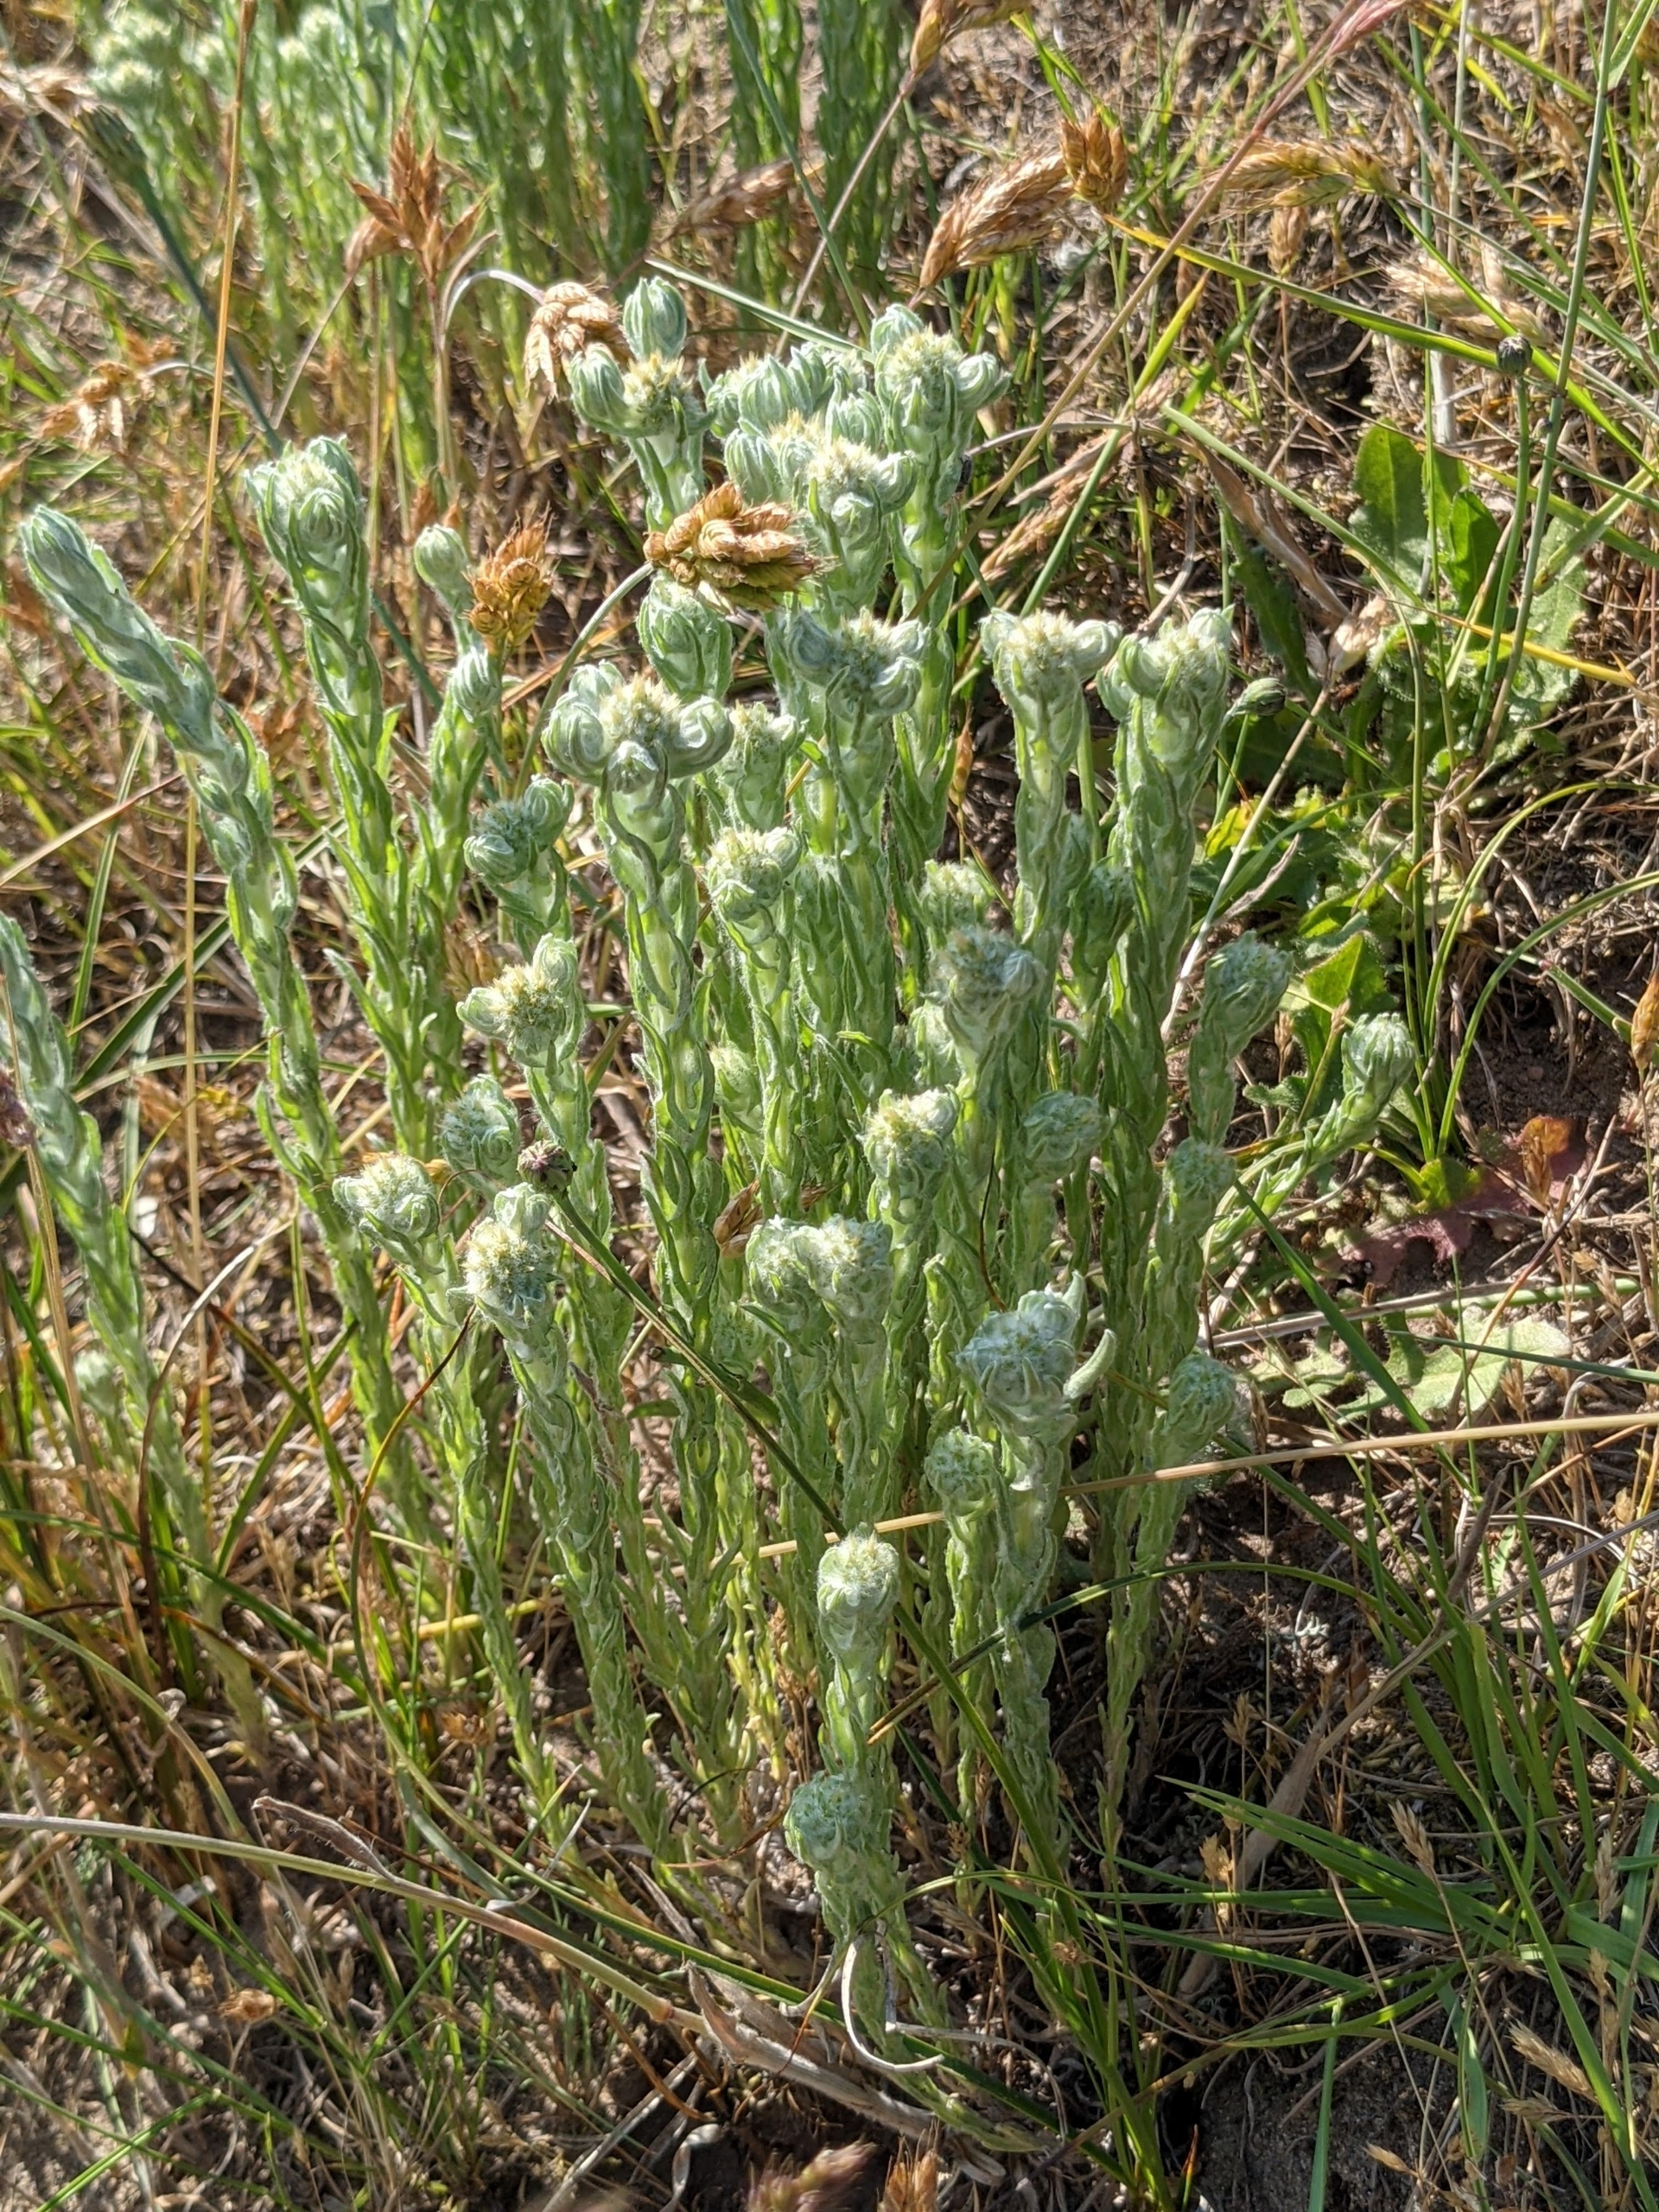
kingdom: Plantae
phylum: Tracheophyta
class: Magnoliopsida
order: Asterales
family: Asteraceae
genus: Filago
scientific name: Filago germanica
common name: Kugle-museurt
